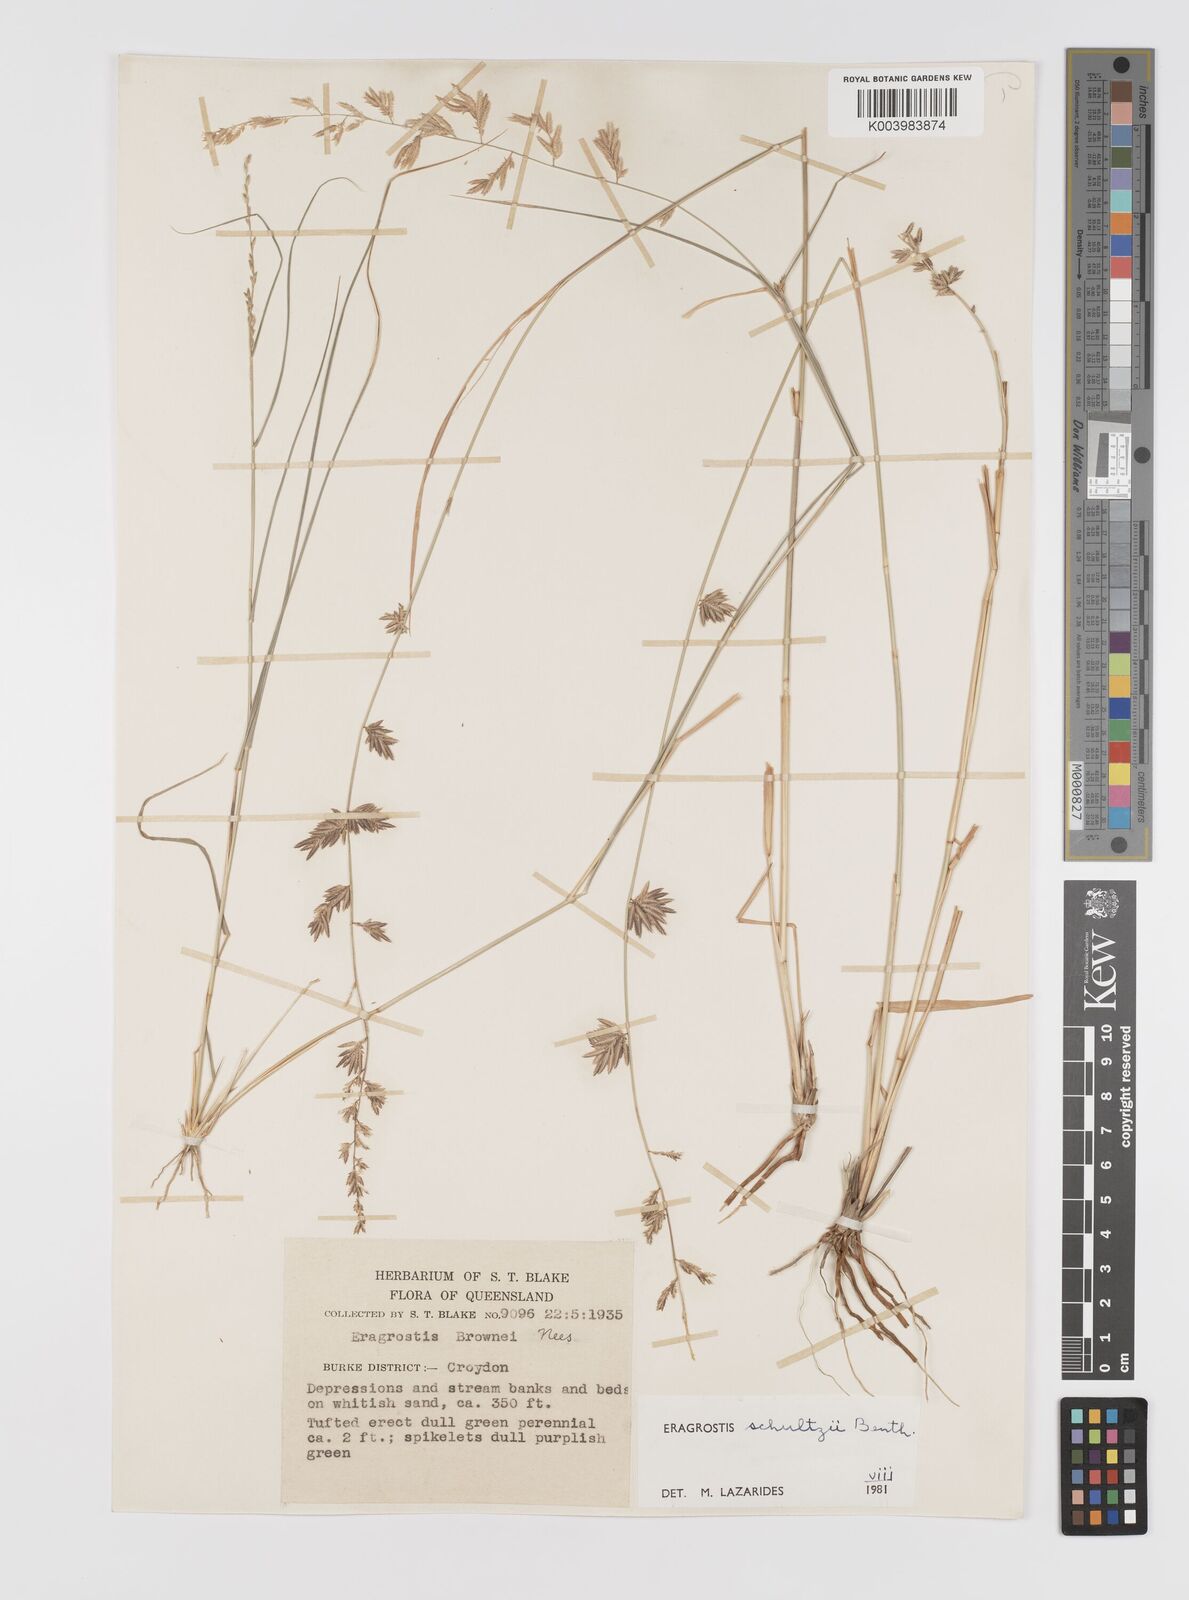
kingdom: Plantae
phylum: Tracheophyta
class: Liliopsida
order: Poales
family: Poaceae
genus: Eragrostis
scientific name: Eragrostis schultzii
